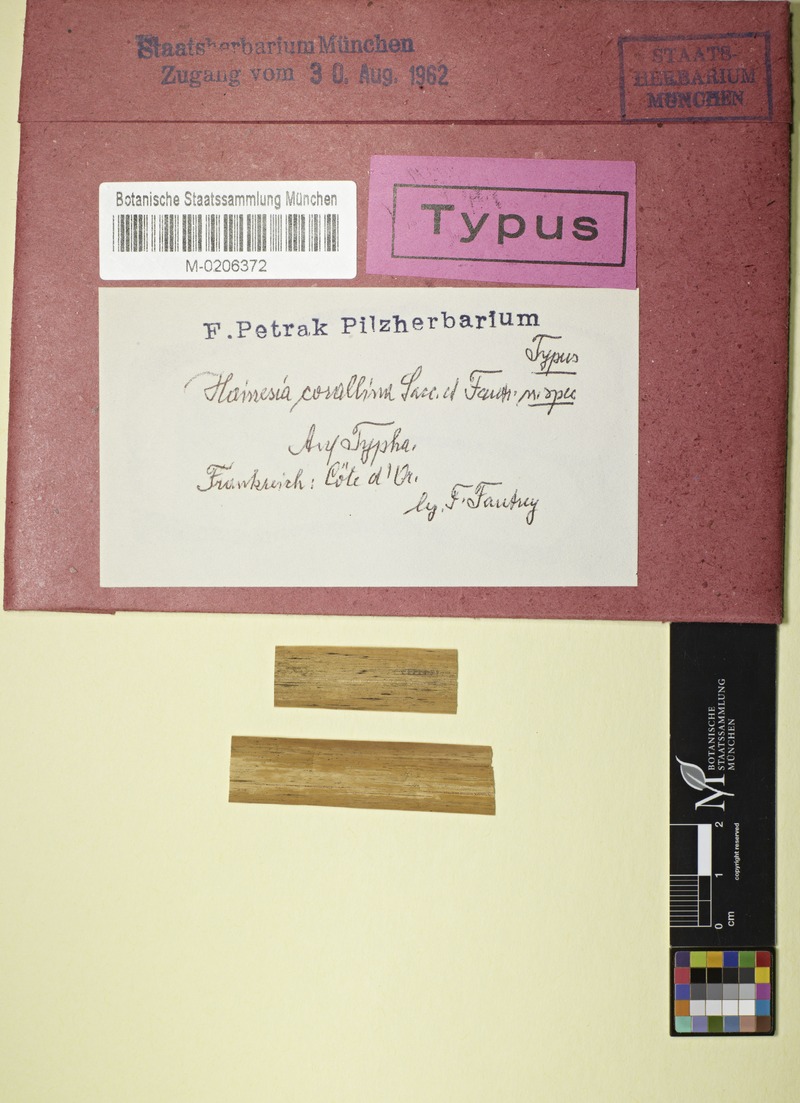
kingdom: Fungi
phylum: Ascomycota
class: Leotiomycetes
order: Chaetomellales
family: Chaetomellaceae
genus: Pilidium
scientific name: Pilidium Hainesia corallina
